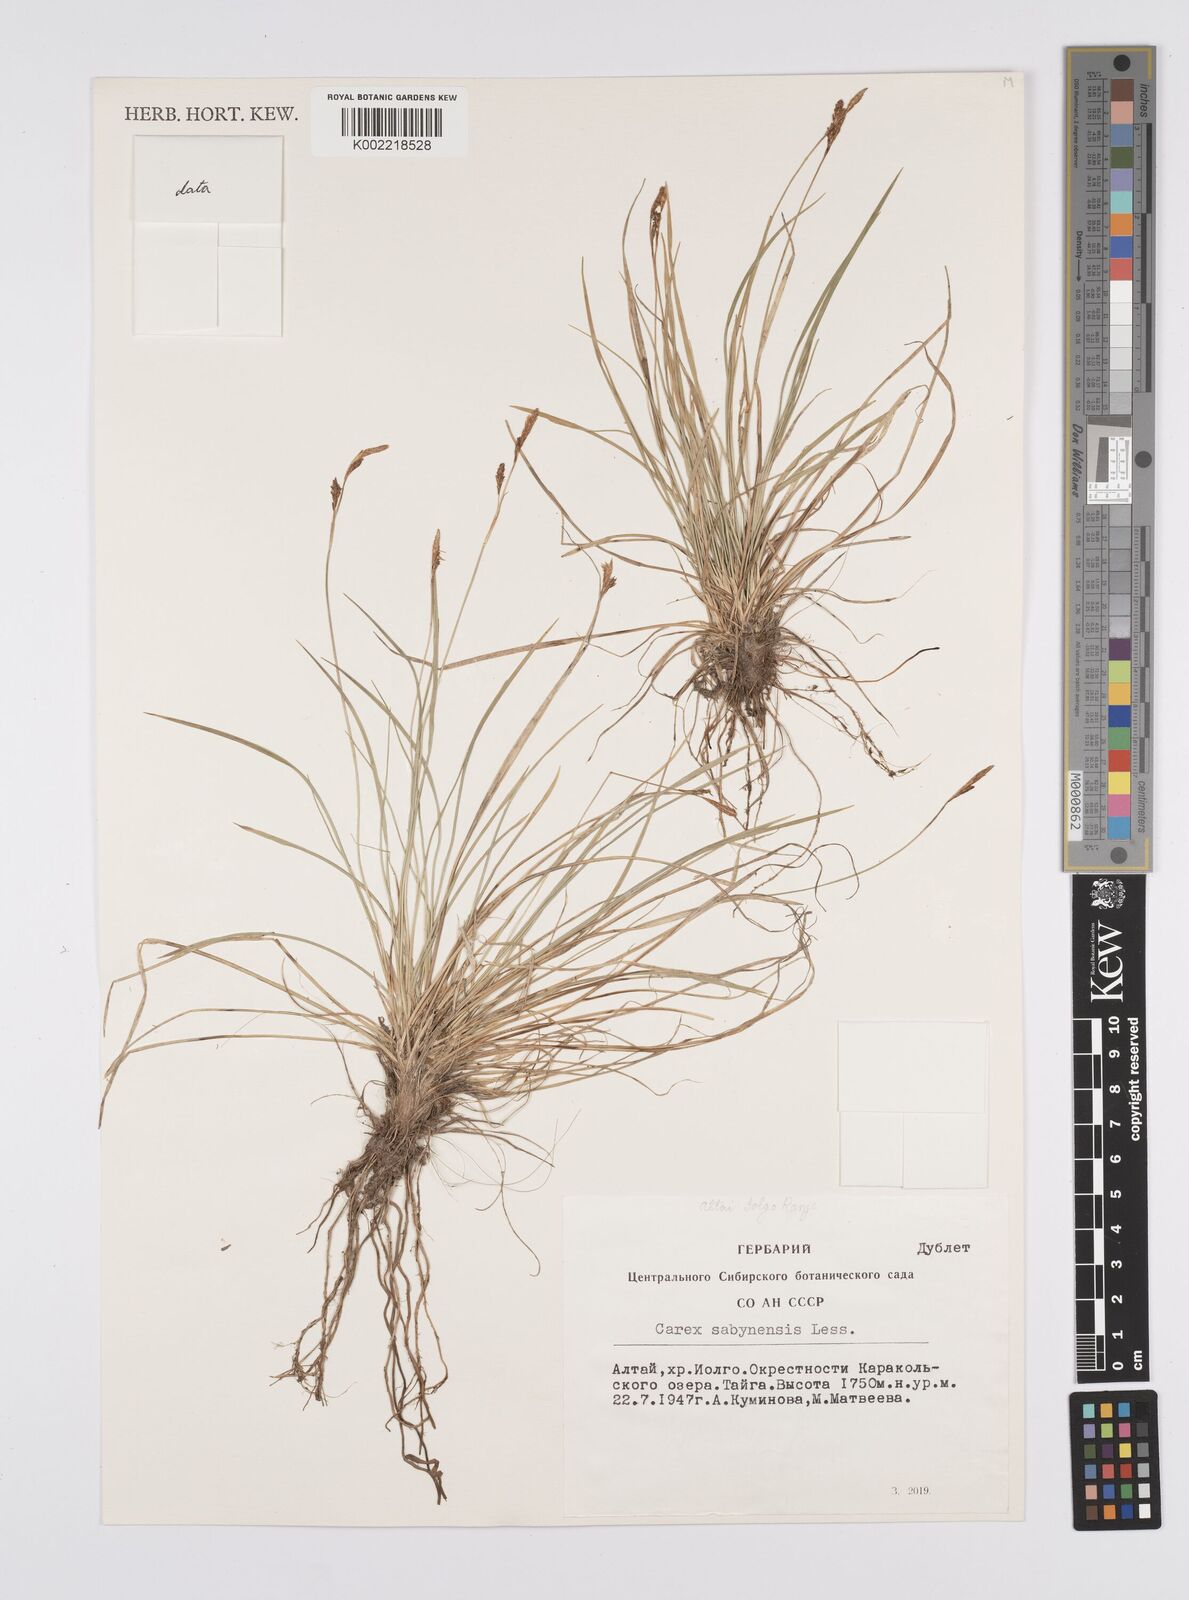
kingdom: Plantae
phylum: Tracheophyta
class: Liliopsida
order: Poales
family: Cyperaceae
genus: Carex
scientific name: Carex umbrosa
